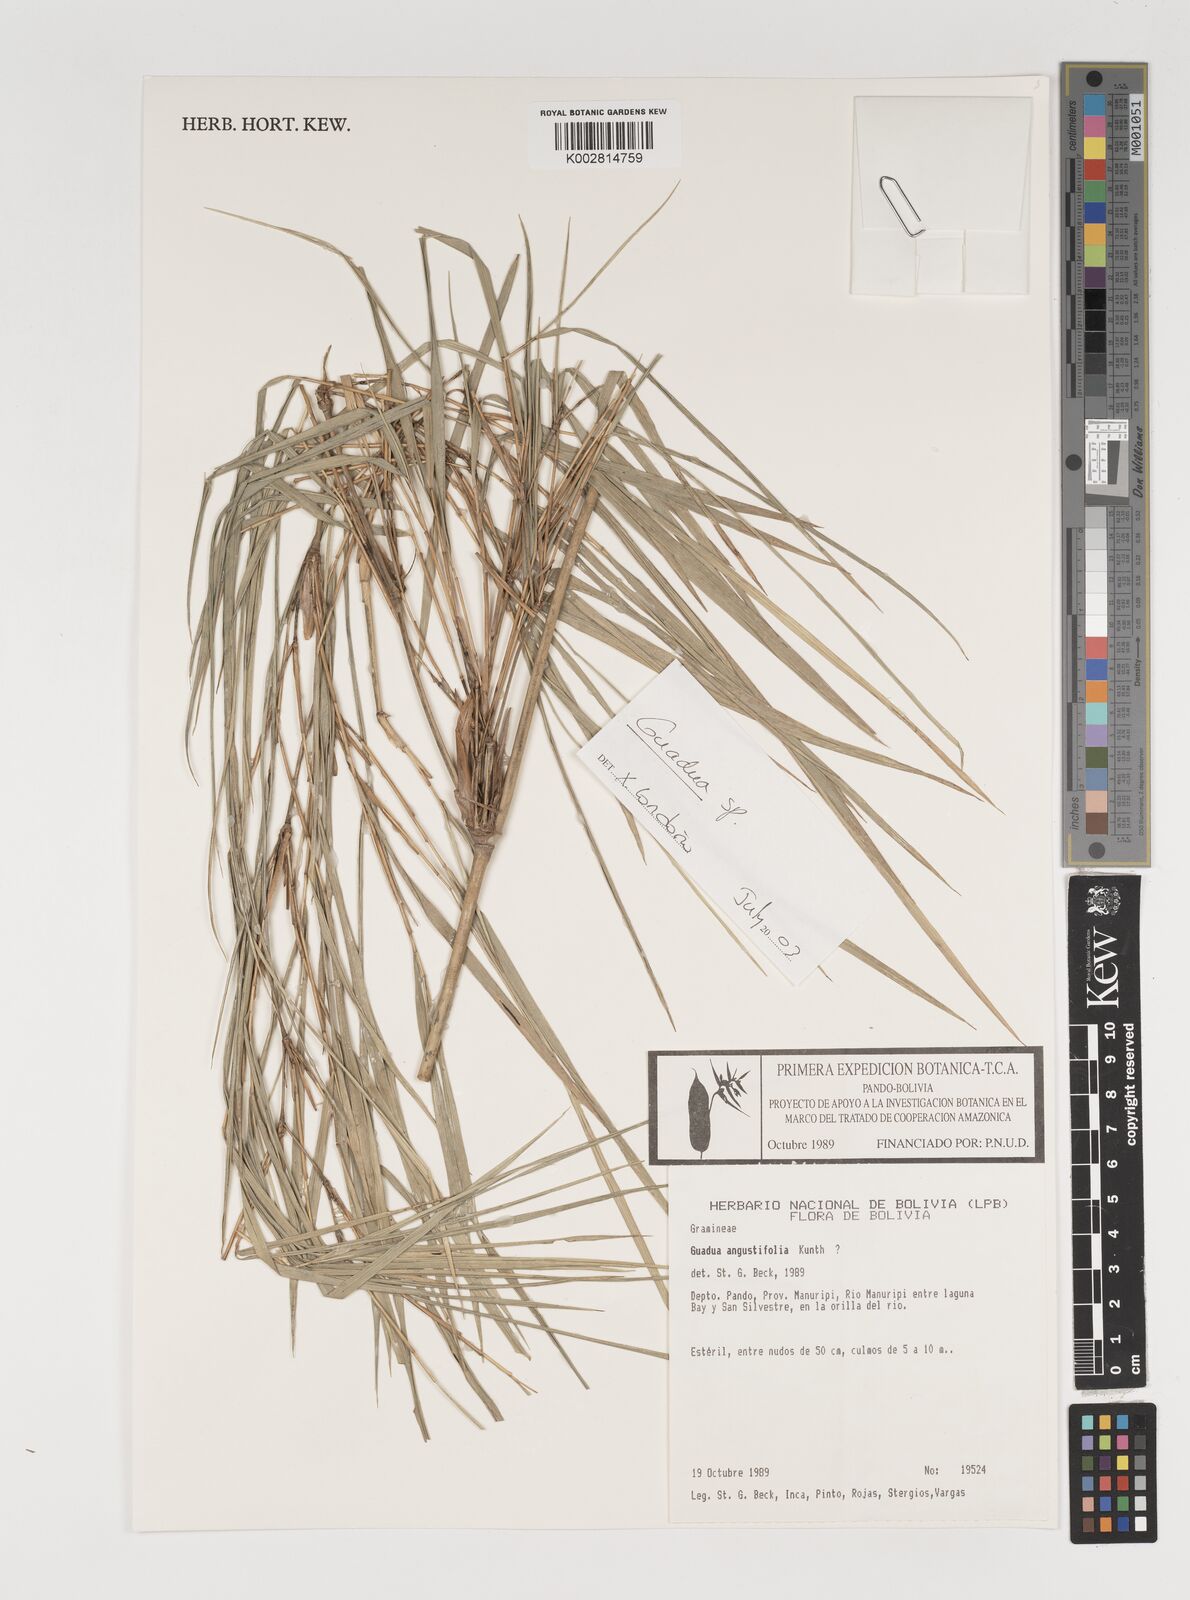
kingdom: Plantae
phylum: Tracheophyta
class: Liliopsida
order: Poales
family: Poaceae
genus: Guadua
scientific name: Guadua
